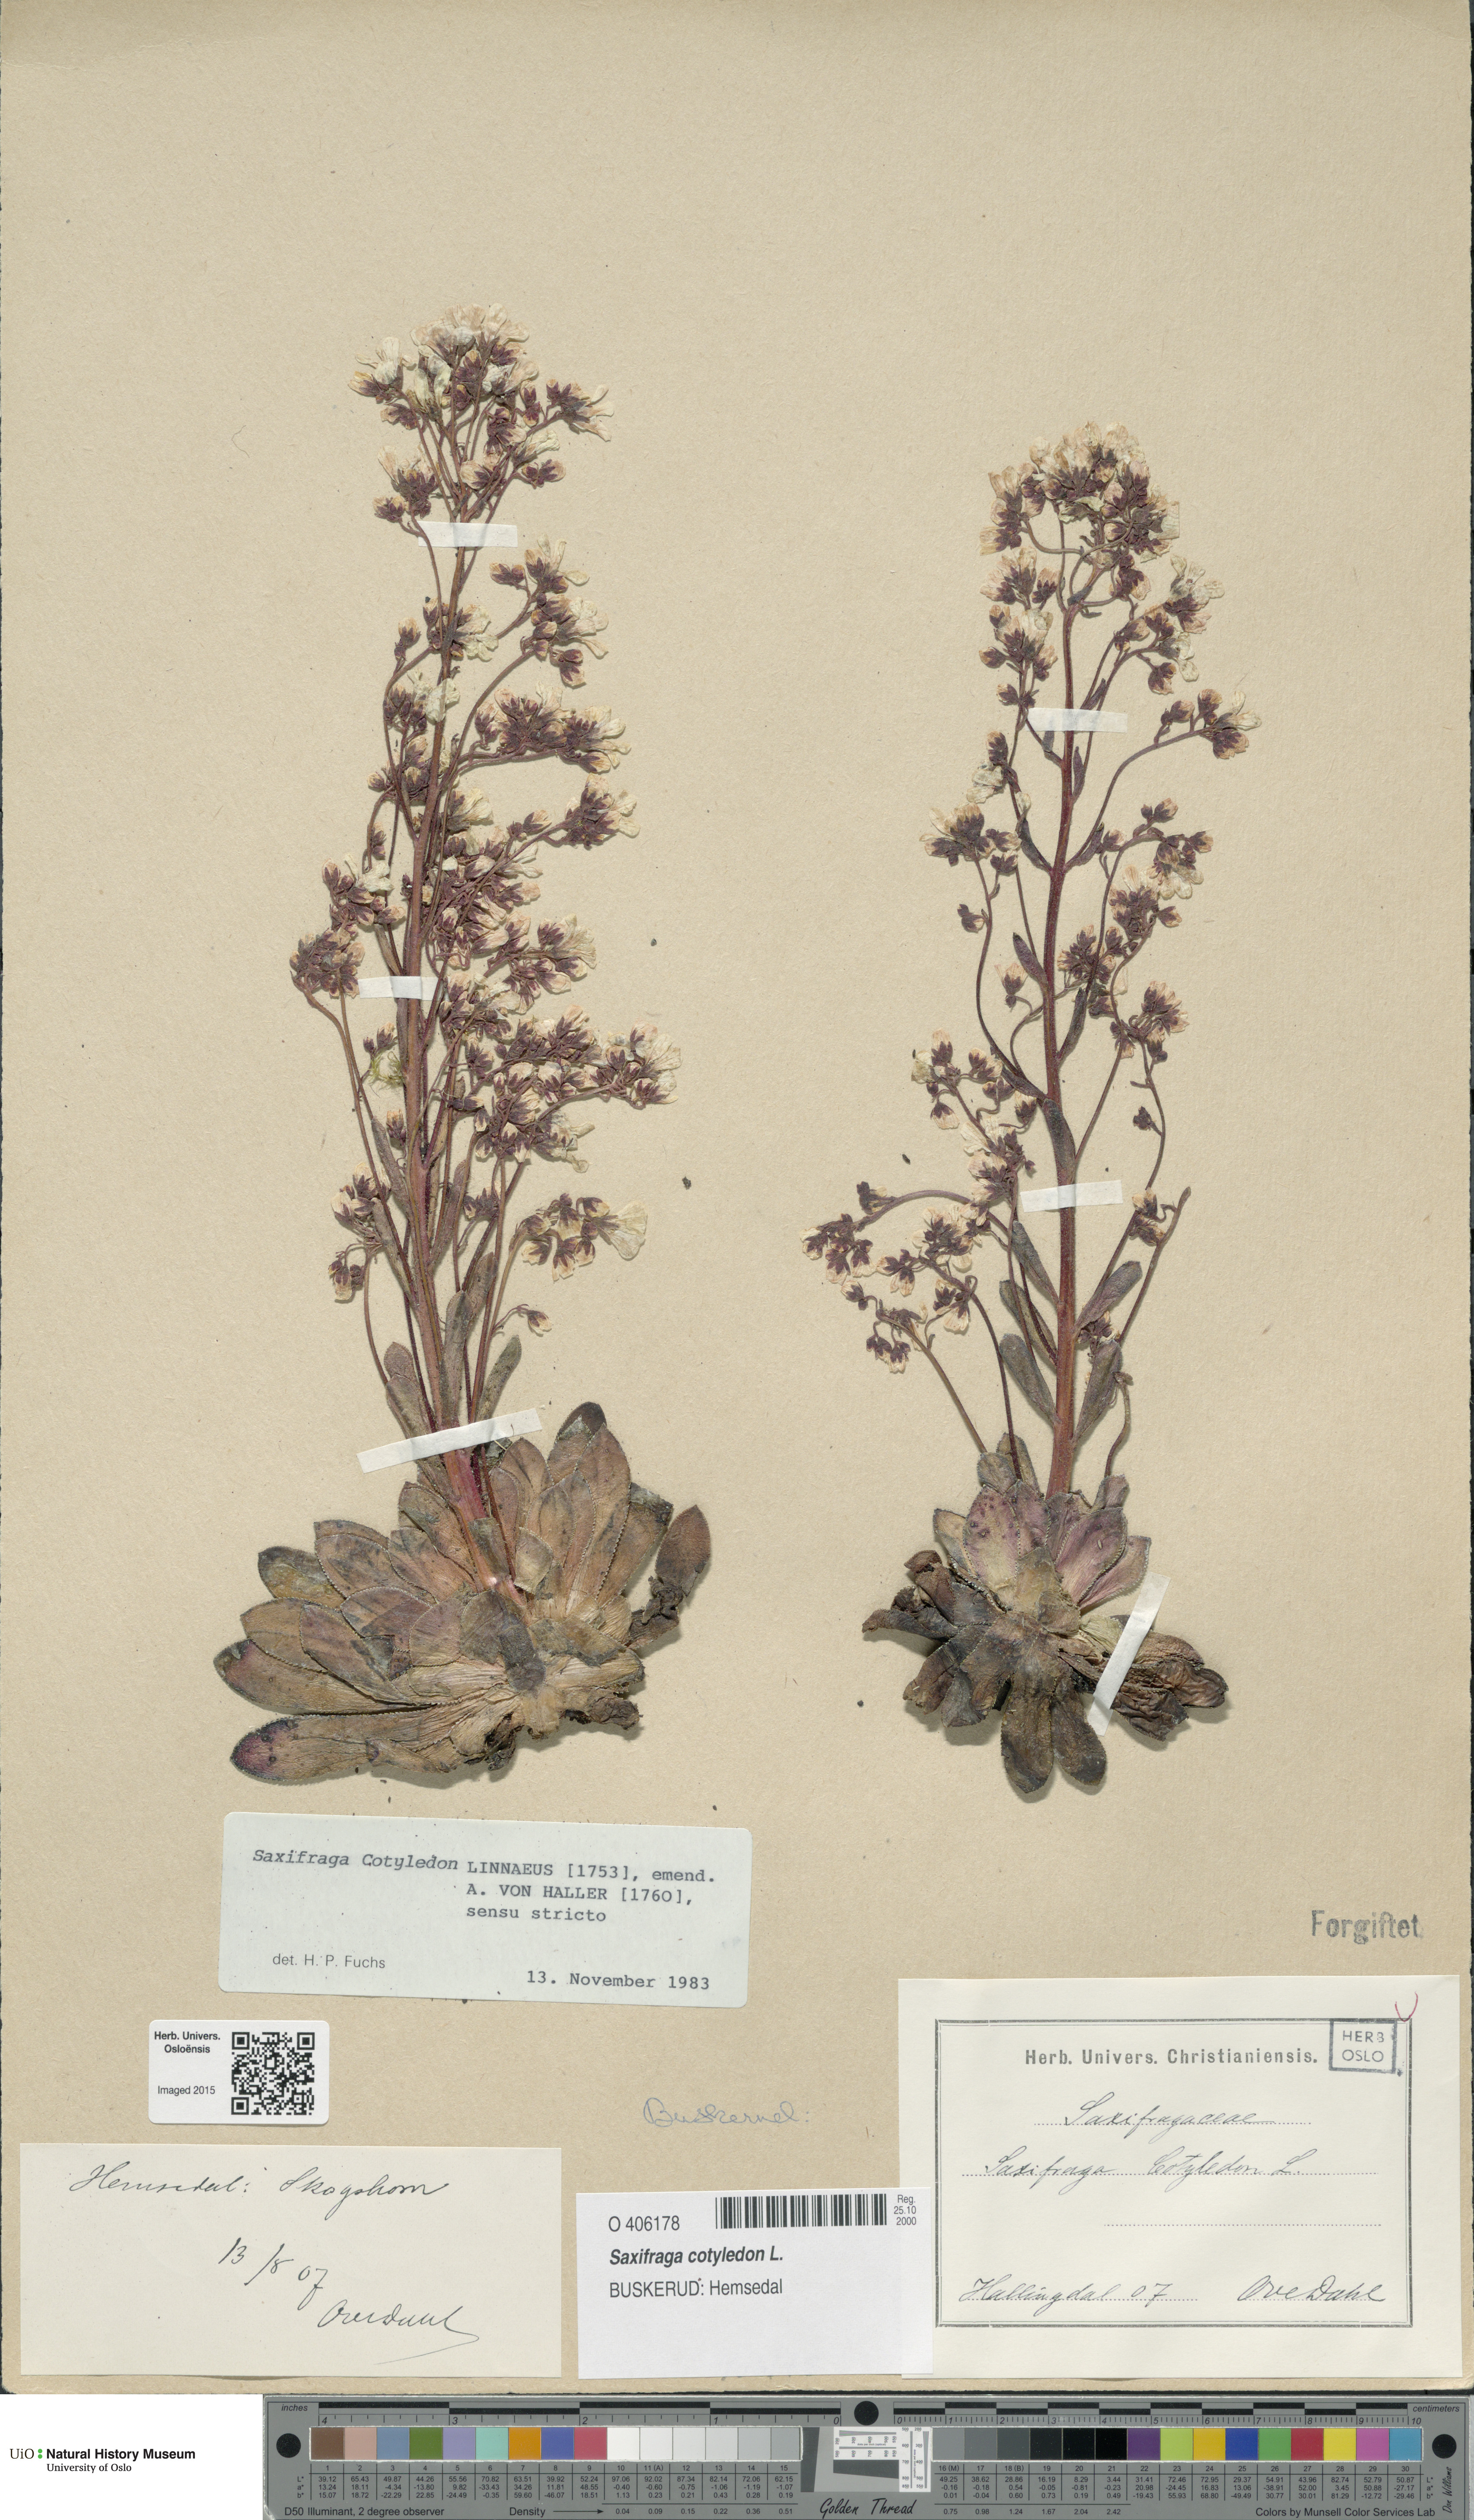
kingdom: Plantae
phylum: Tracheophyta
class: Magnoliopsida
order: Saxifragales
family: Saxifragaceae
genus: Saxifraga
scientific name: Saxifraga cotyledon
